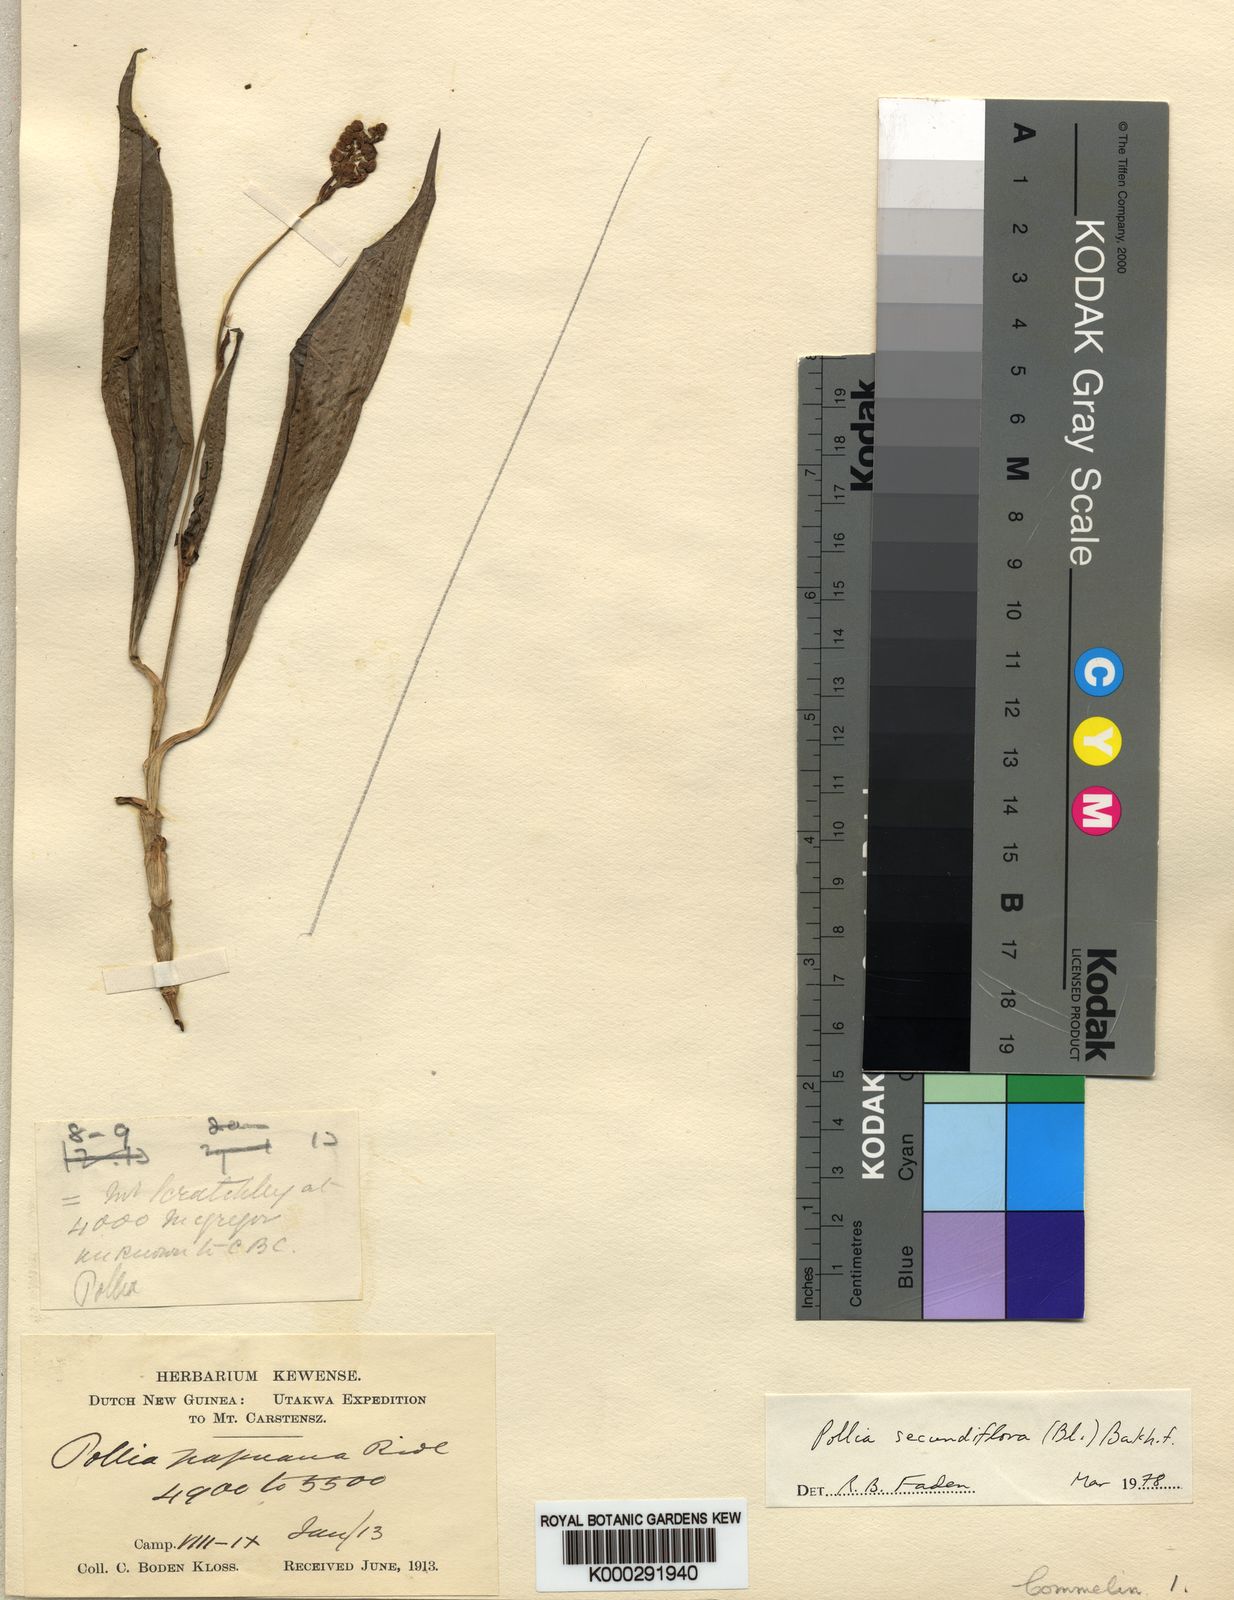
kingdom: Plantae
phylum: Tracheophyta
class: Liliopsida
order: Commelinales
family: Commelinaceae
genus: Pollia
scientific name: Pollia secundiflora
